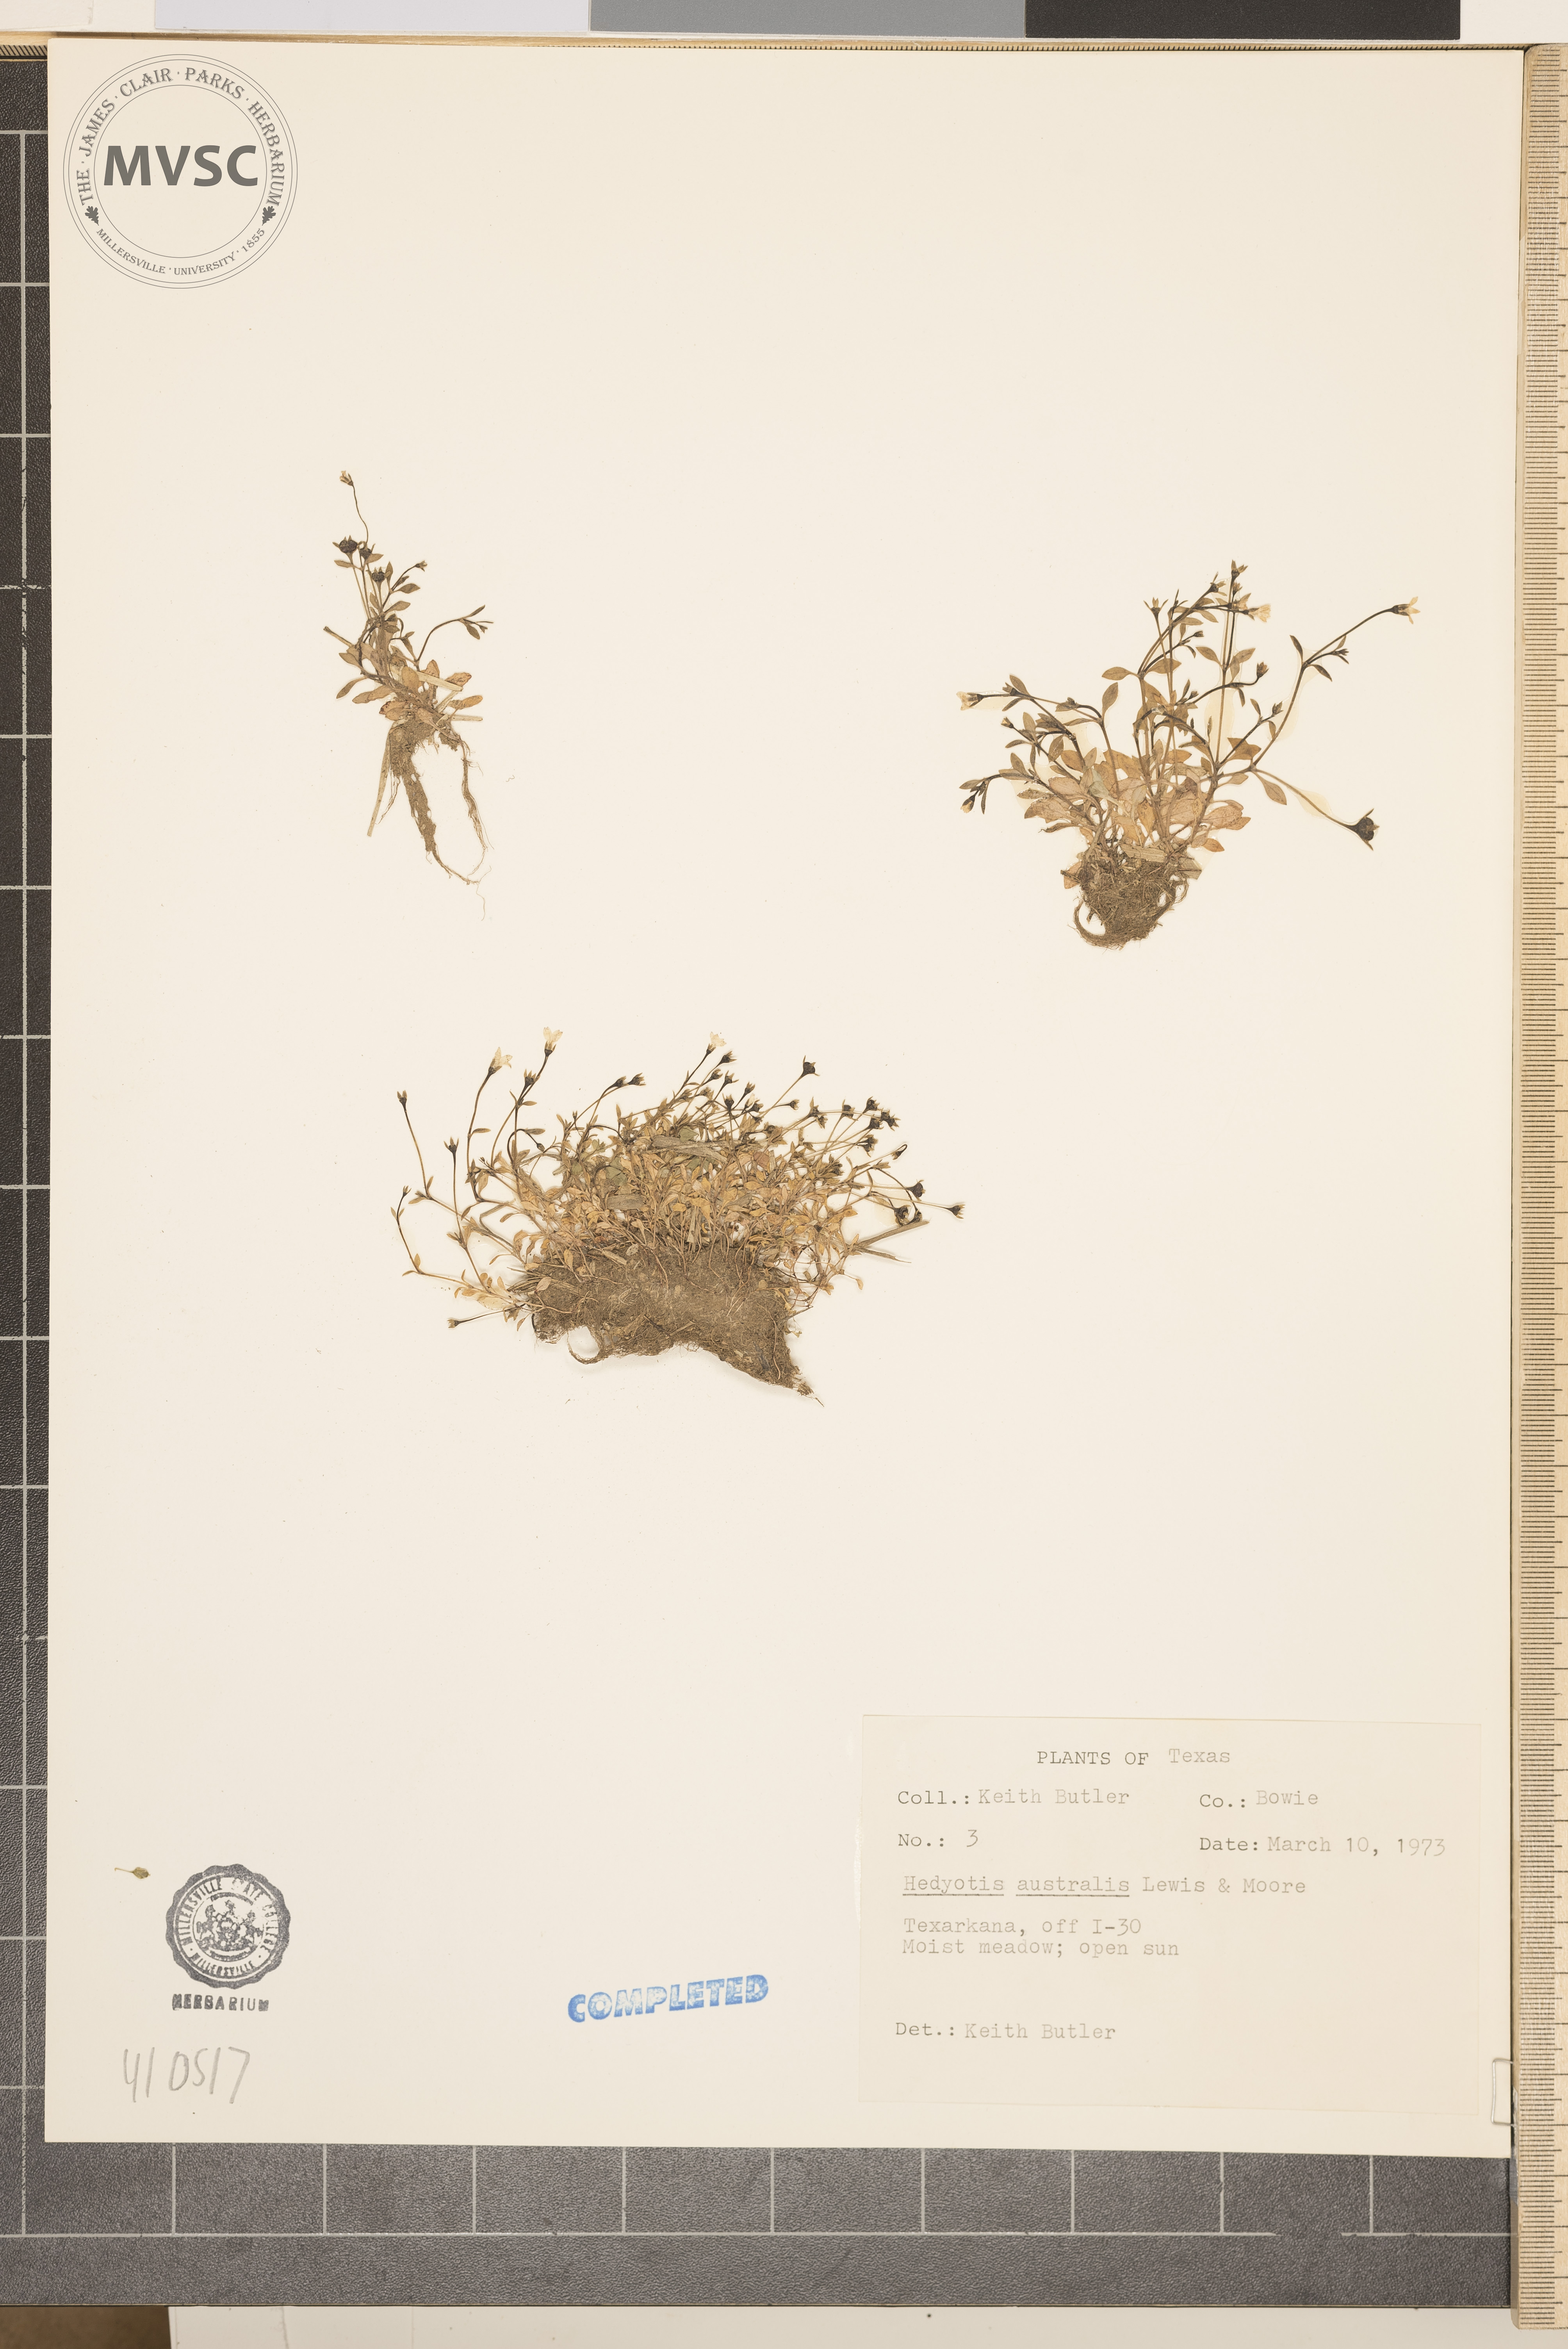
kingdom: Plantae
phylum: Tracheophyta
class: Magnoliopsida
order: Gentianales
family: Rubiaceae
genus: Houstonia
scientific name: Houstonia micrantha
